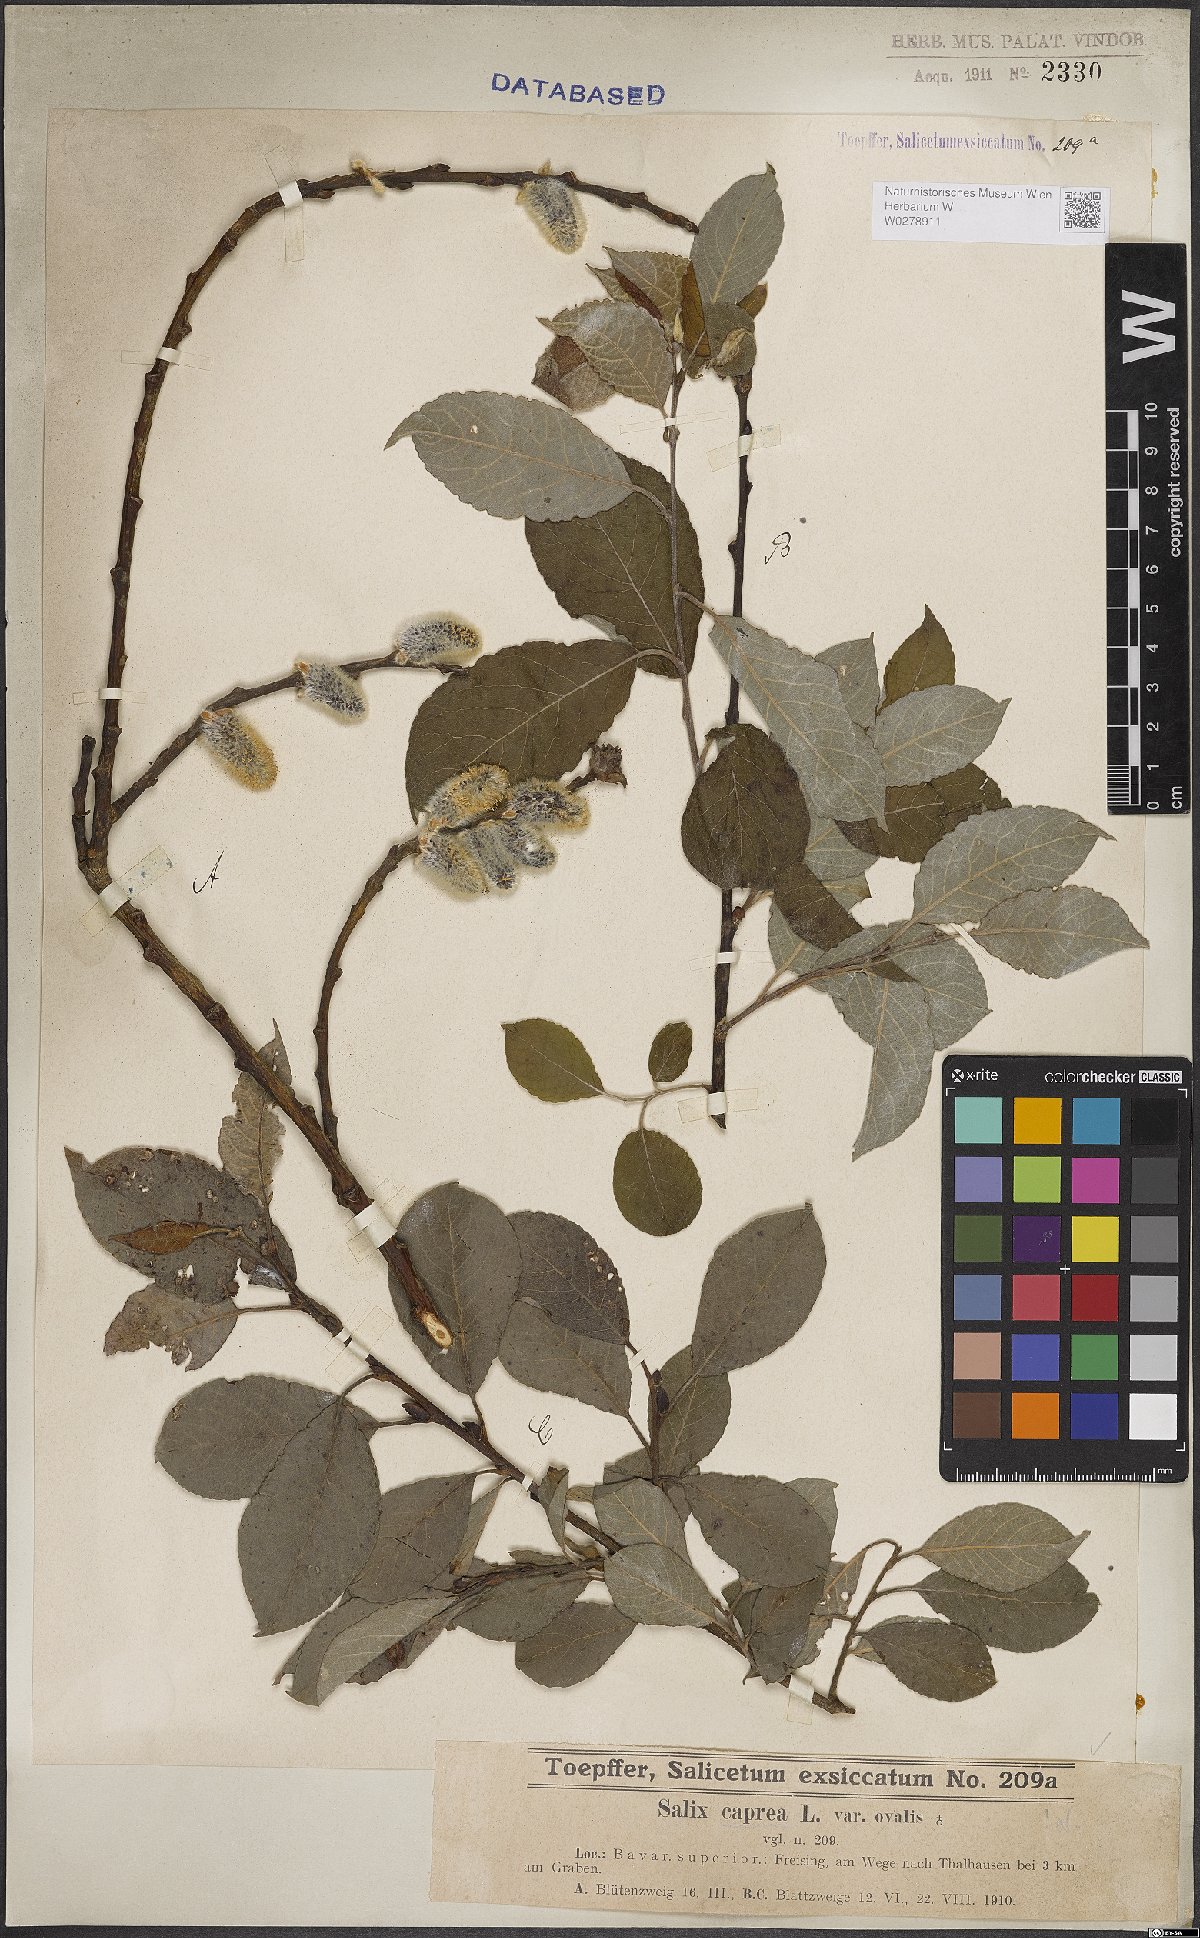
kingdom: Plantae
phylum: Tracheophyta
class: Magnoliopsida
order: Malpighiales
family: Salicaceae
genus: Salix
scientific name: Salix caprea
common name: Goat willow
